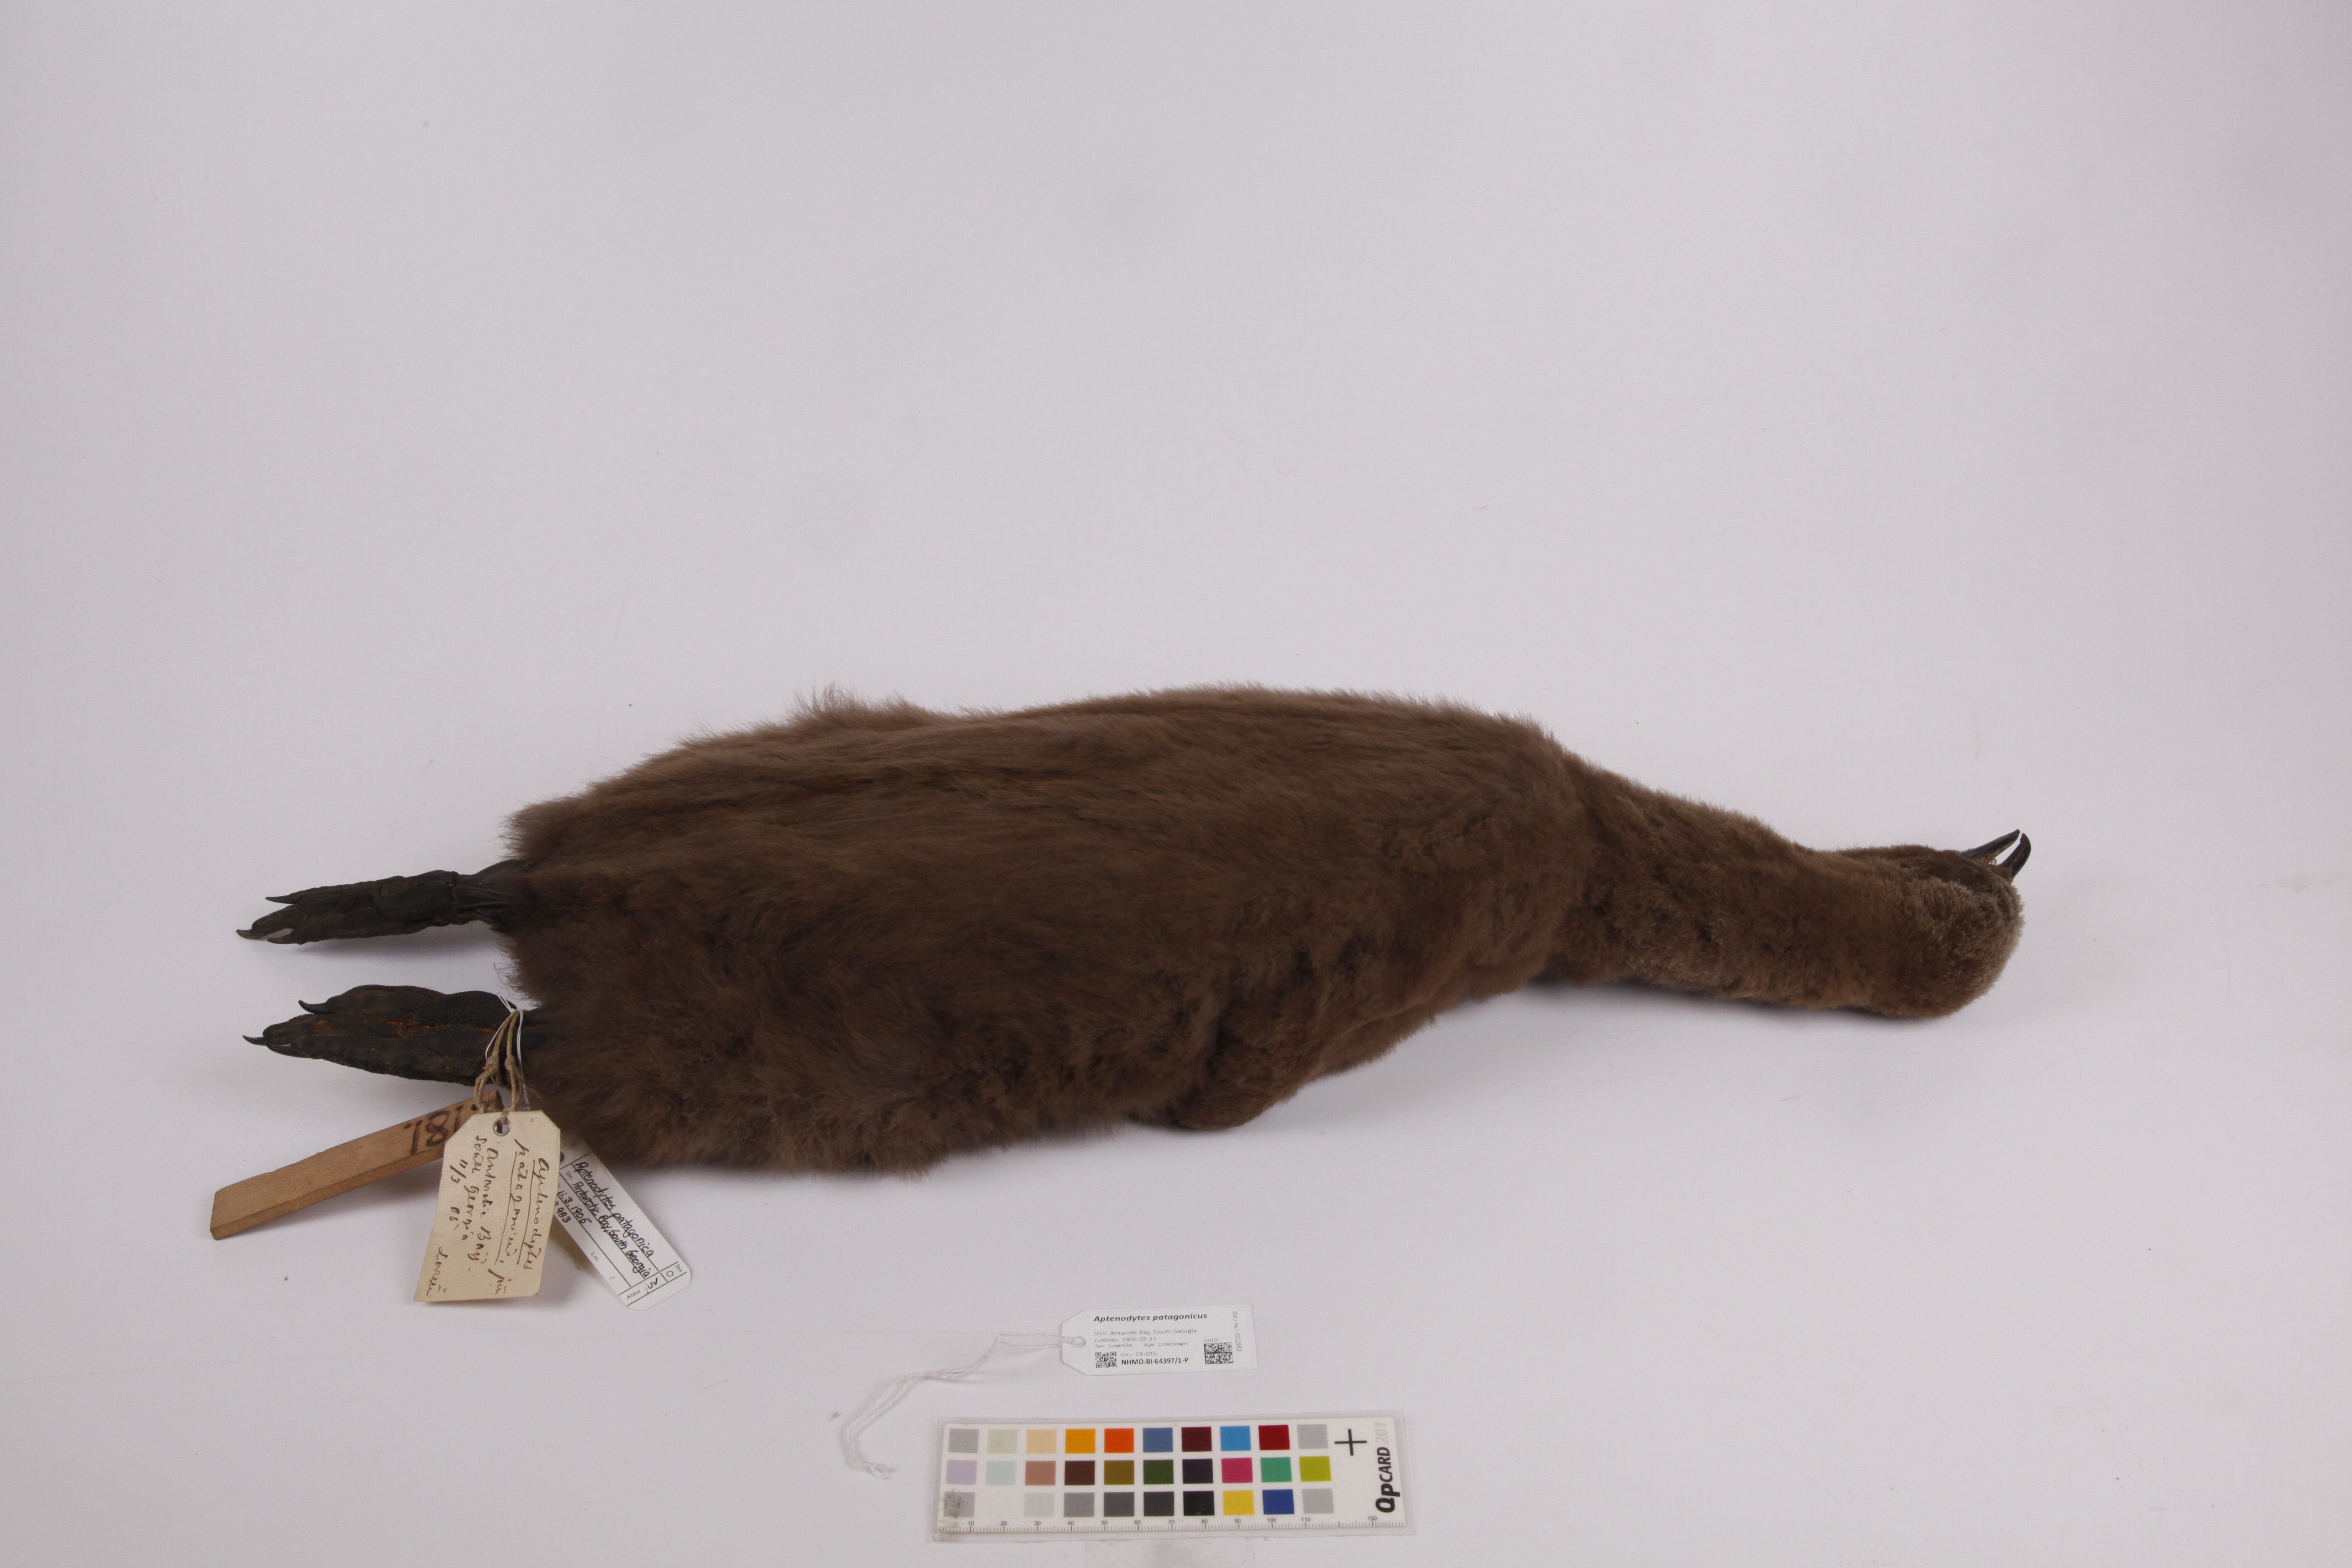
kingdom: Animalia
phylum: Chordata
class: Aves
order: Sphenisciformes
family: Spheniscidae
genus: Aptenodytes
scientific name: Aptenodytes patagonicus
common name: King penguin
